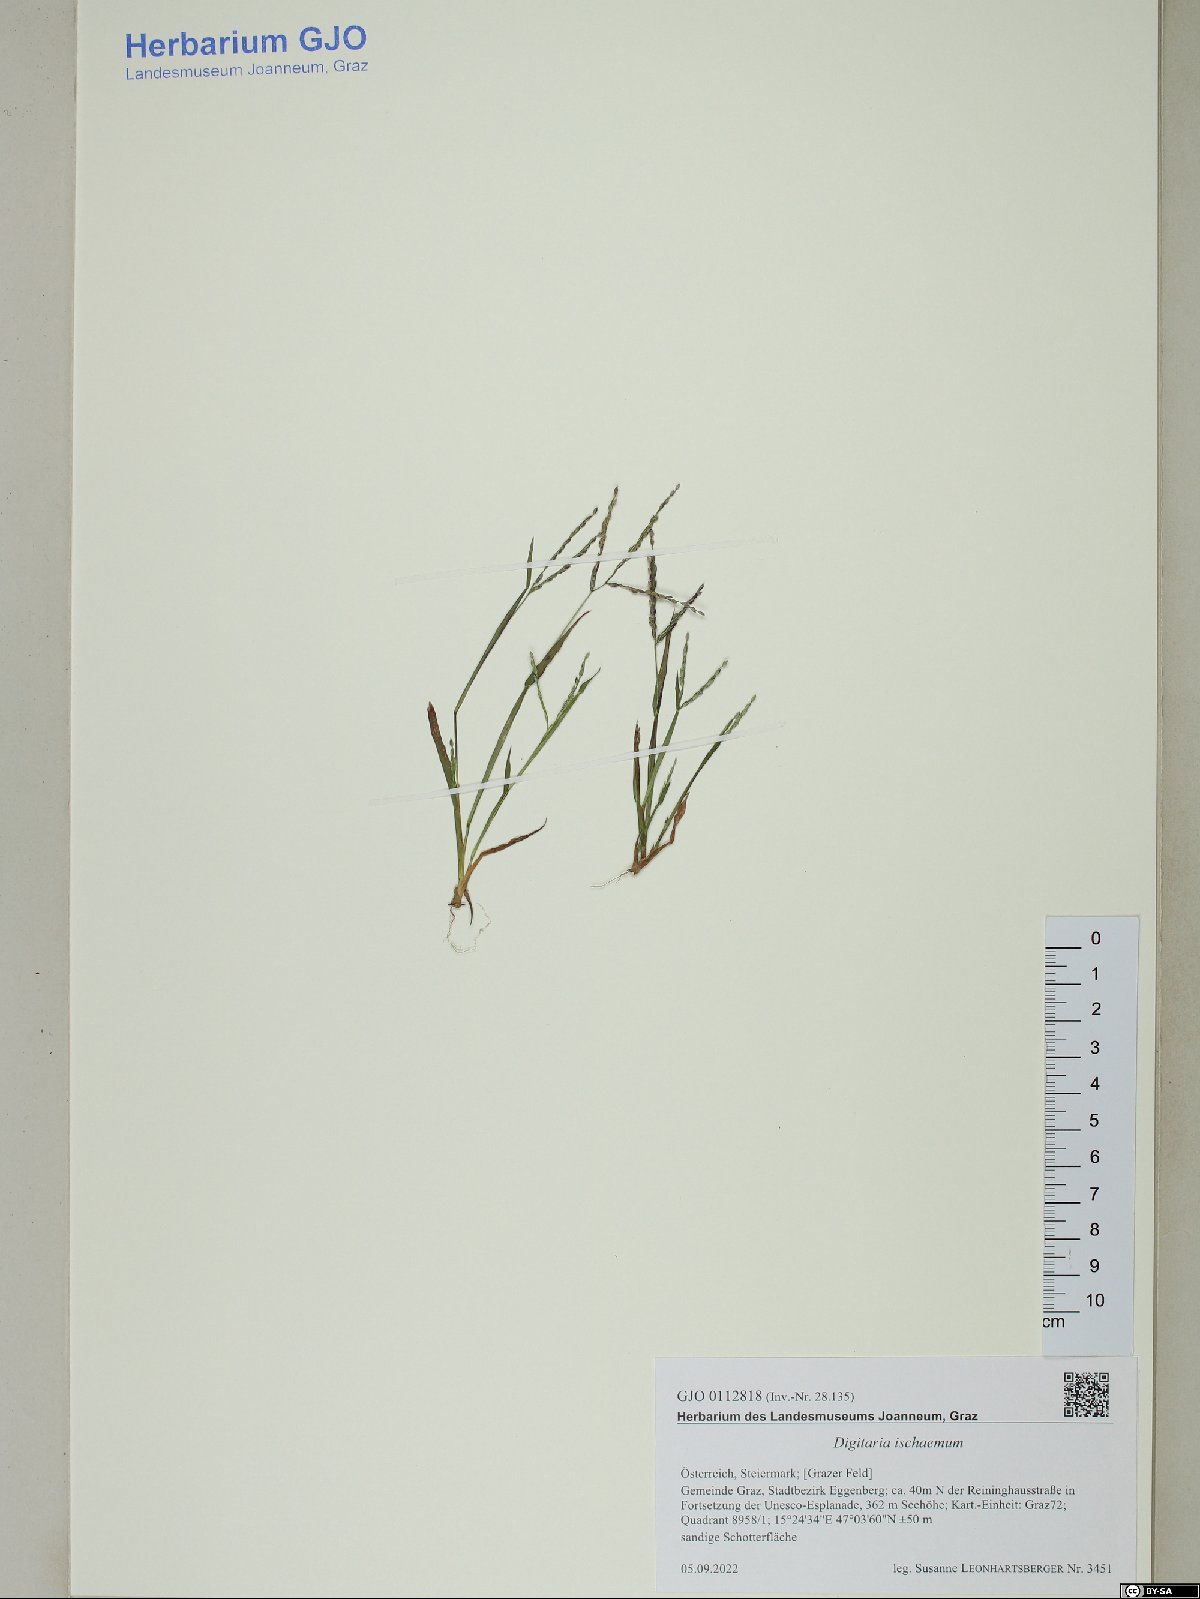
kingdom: Plantae
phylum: Tracheophyta
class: Liliopsida
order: Poales
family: Poaceae
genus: Digitaria
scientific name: Digitaria ischaemum
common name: Smooth crabgrass
